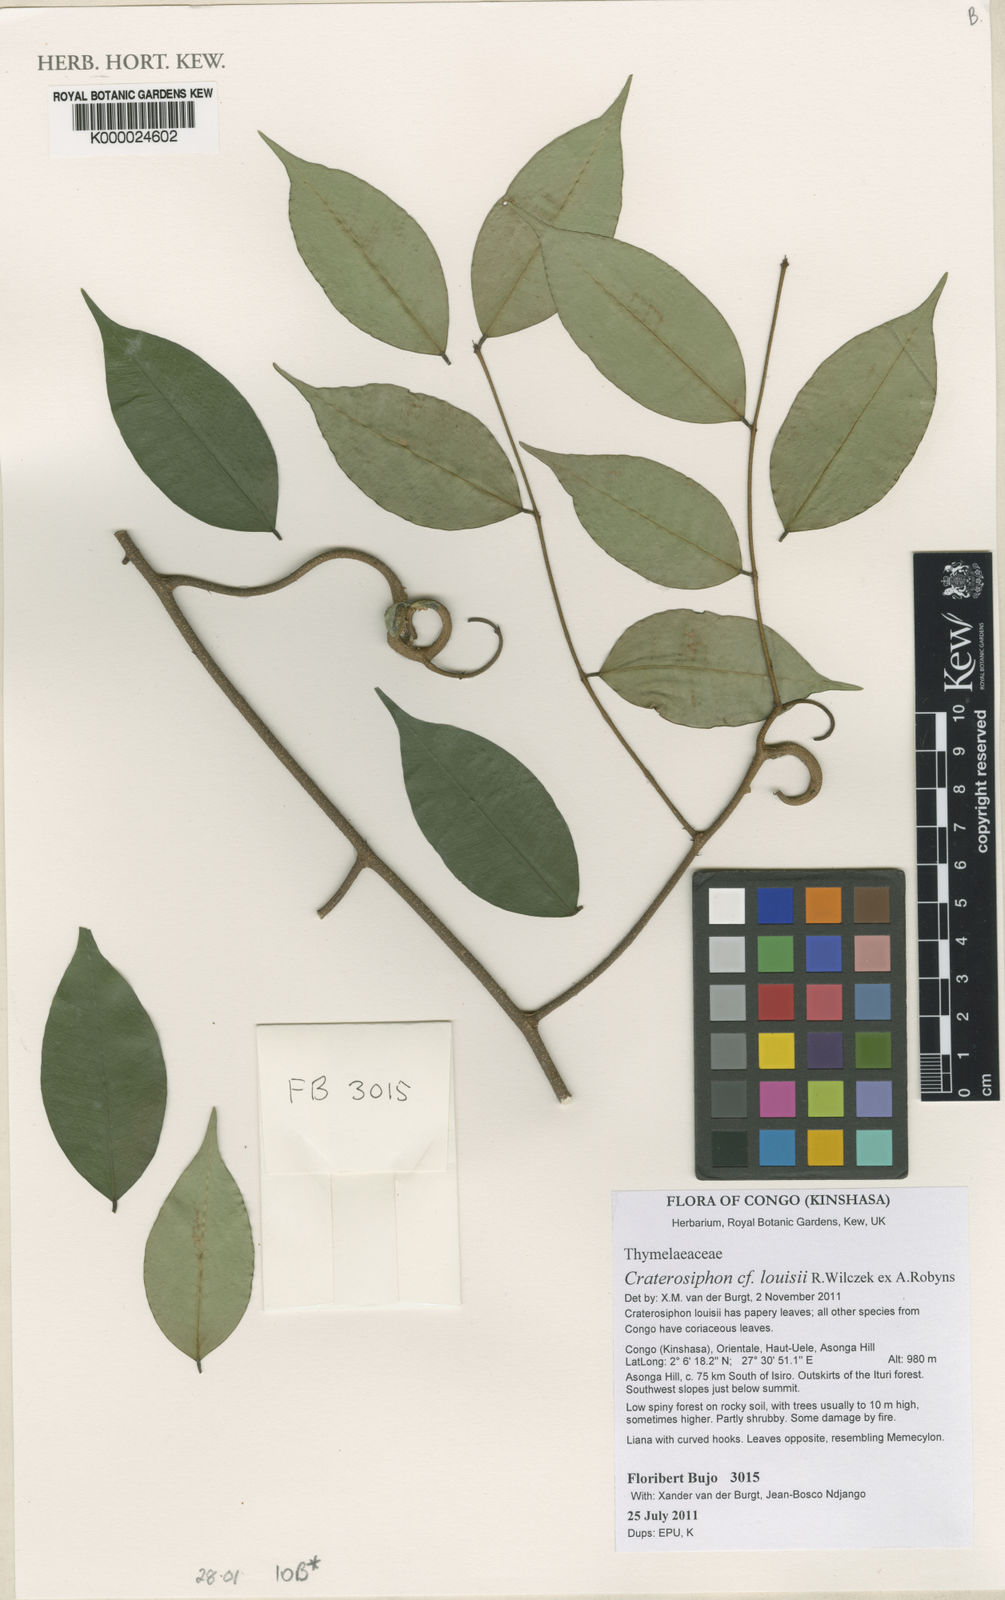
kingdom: Plantae
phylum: Tracheophyta
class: Magnoliopsida
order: Malvales
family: Thymelaeaceae
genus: Craterosiphon
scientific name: Craterosiphon louisii
